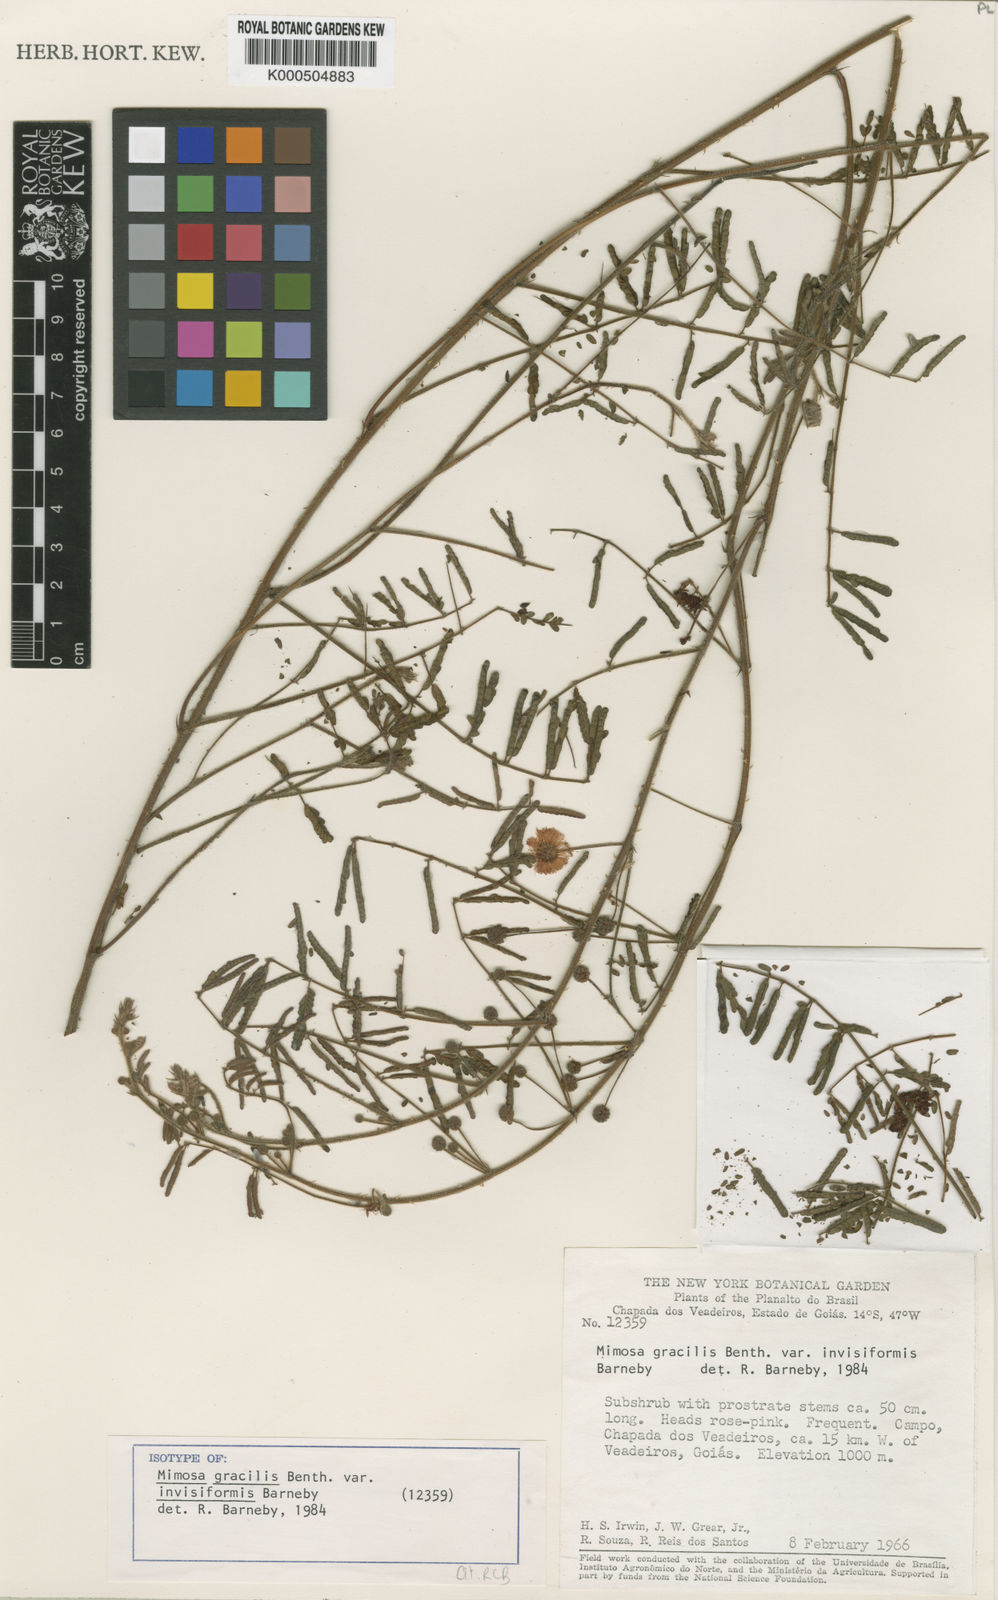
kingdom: Plantae
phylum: Tracheophyta
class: Magnoliopsida
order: Fabales
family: Fabaceae
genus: Mimosa
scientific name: Mimosa gracilis
